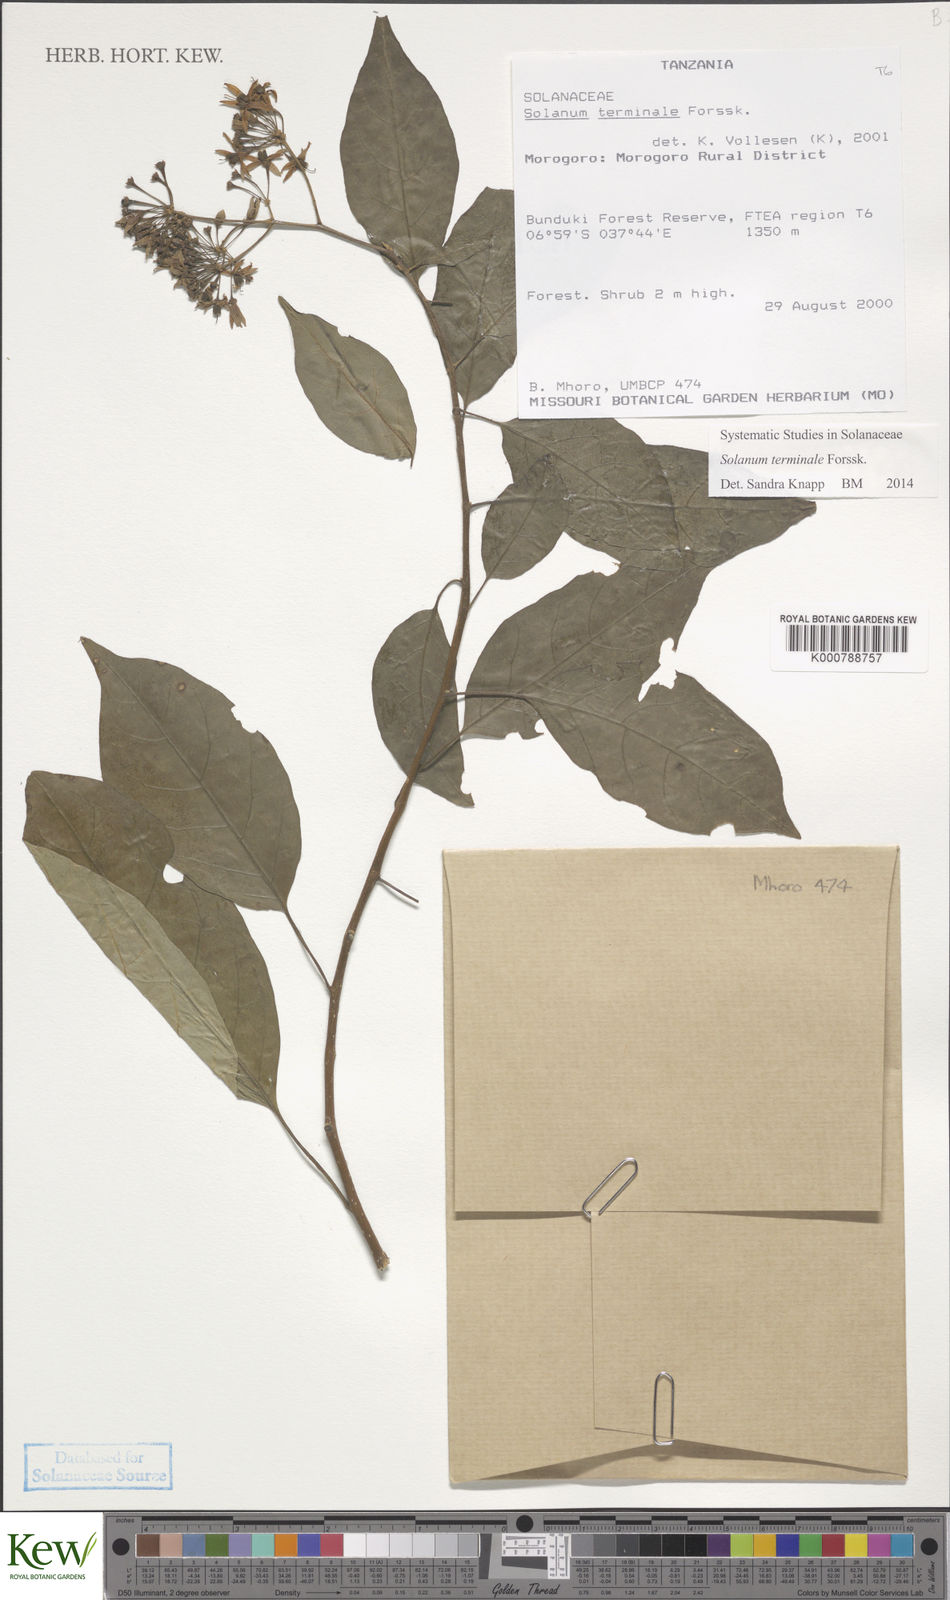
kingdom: Plantae
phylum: Tracheophyta
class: Magnoliopsida
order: Solanales
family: Solanaceae
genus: Solanum
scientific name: Solanum terminale
